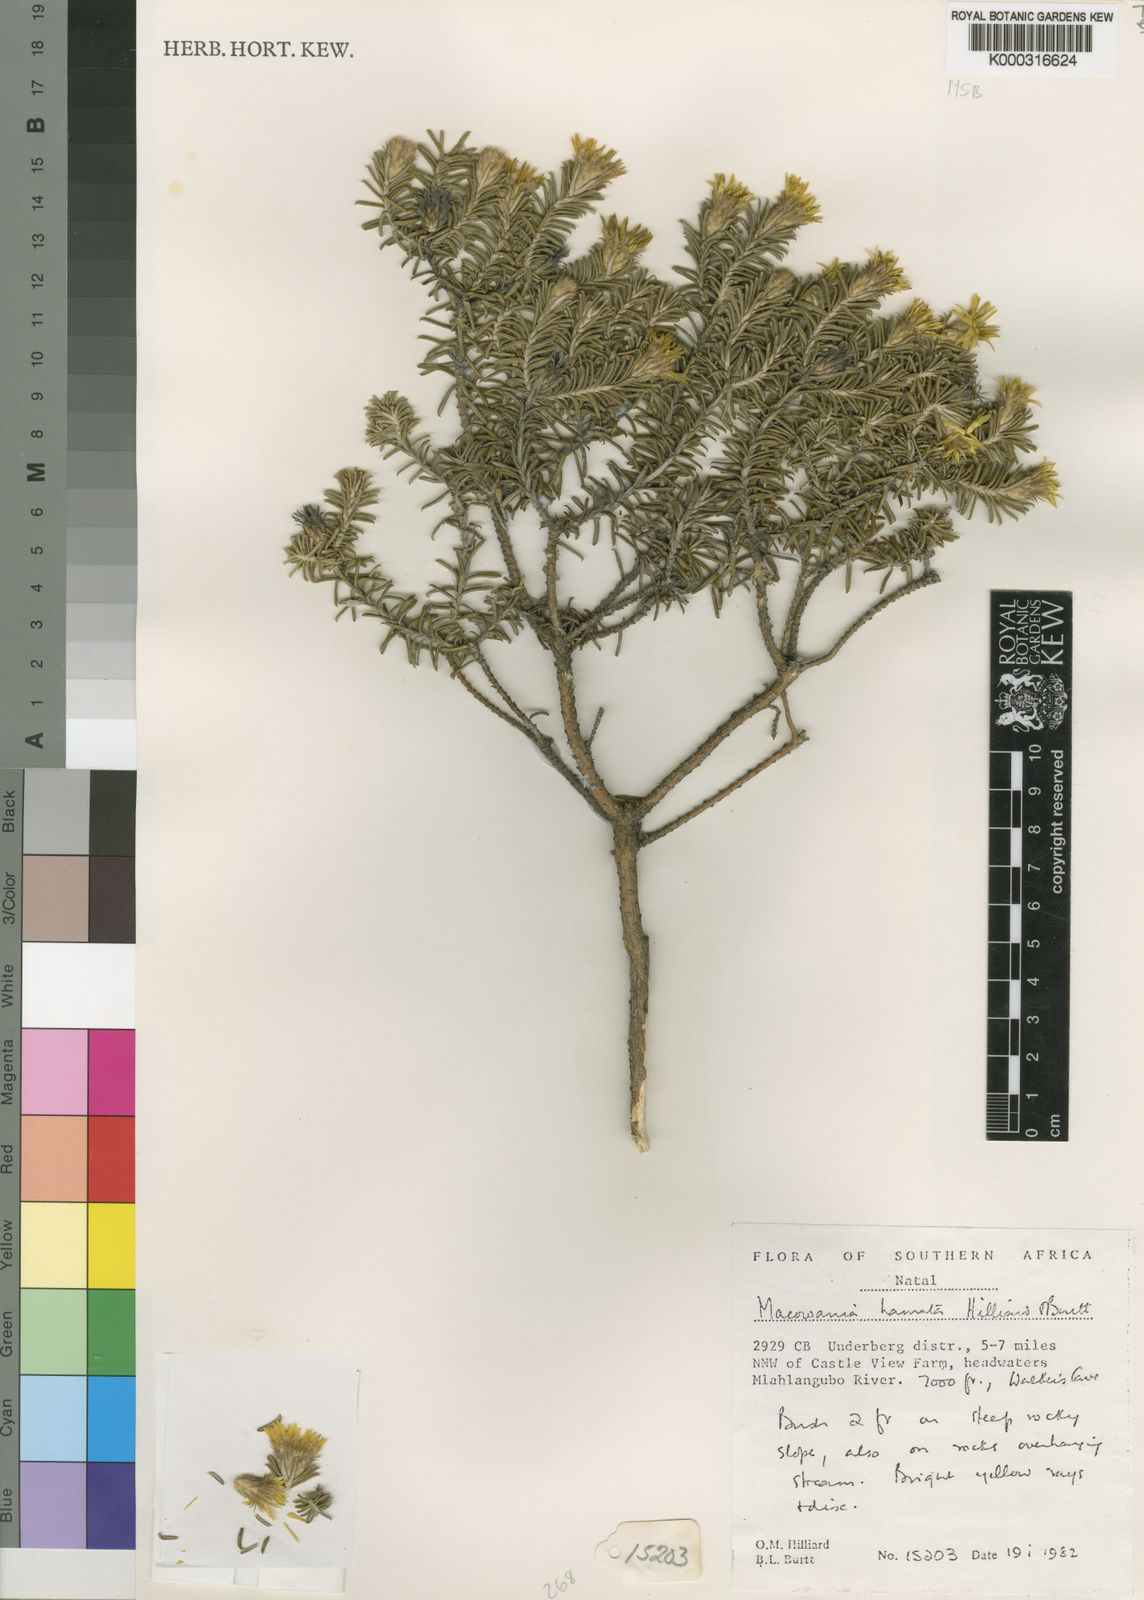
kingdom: Plantae
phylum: Tracheophyta
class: Magnoliopsida
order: Asterales
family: Asteraceae
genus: Arrowsmithia
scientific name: Arrowsmithia hamata
